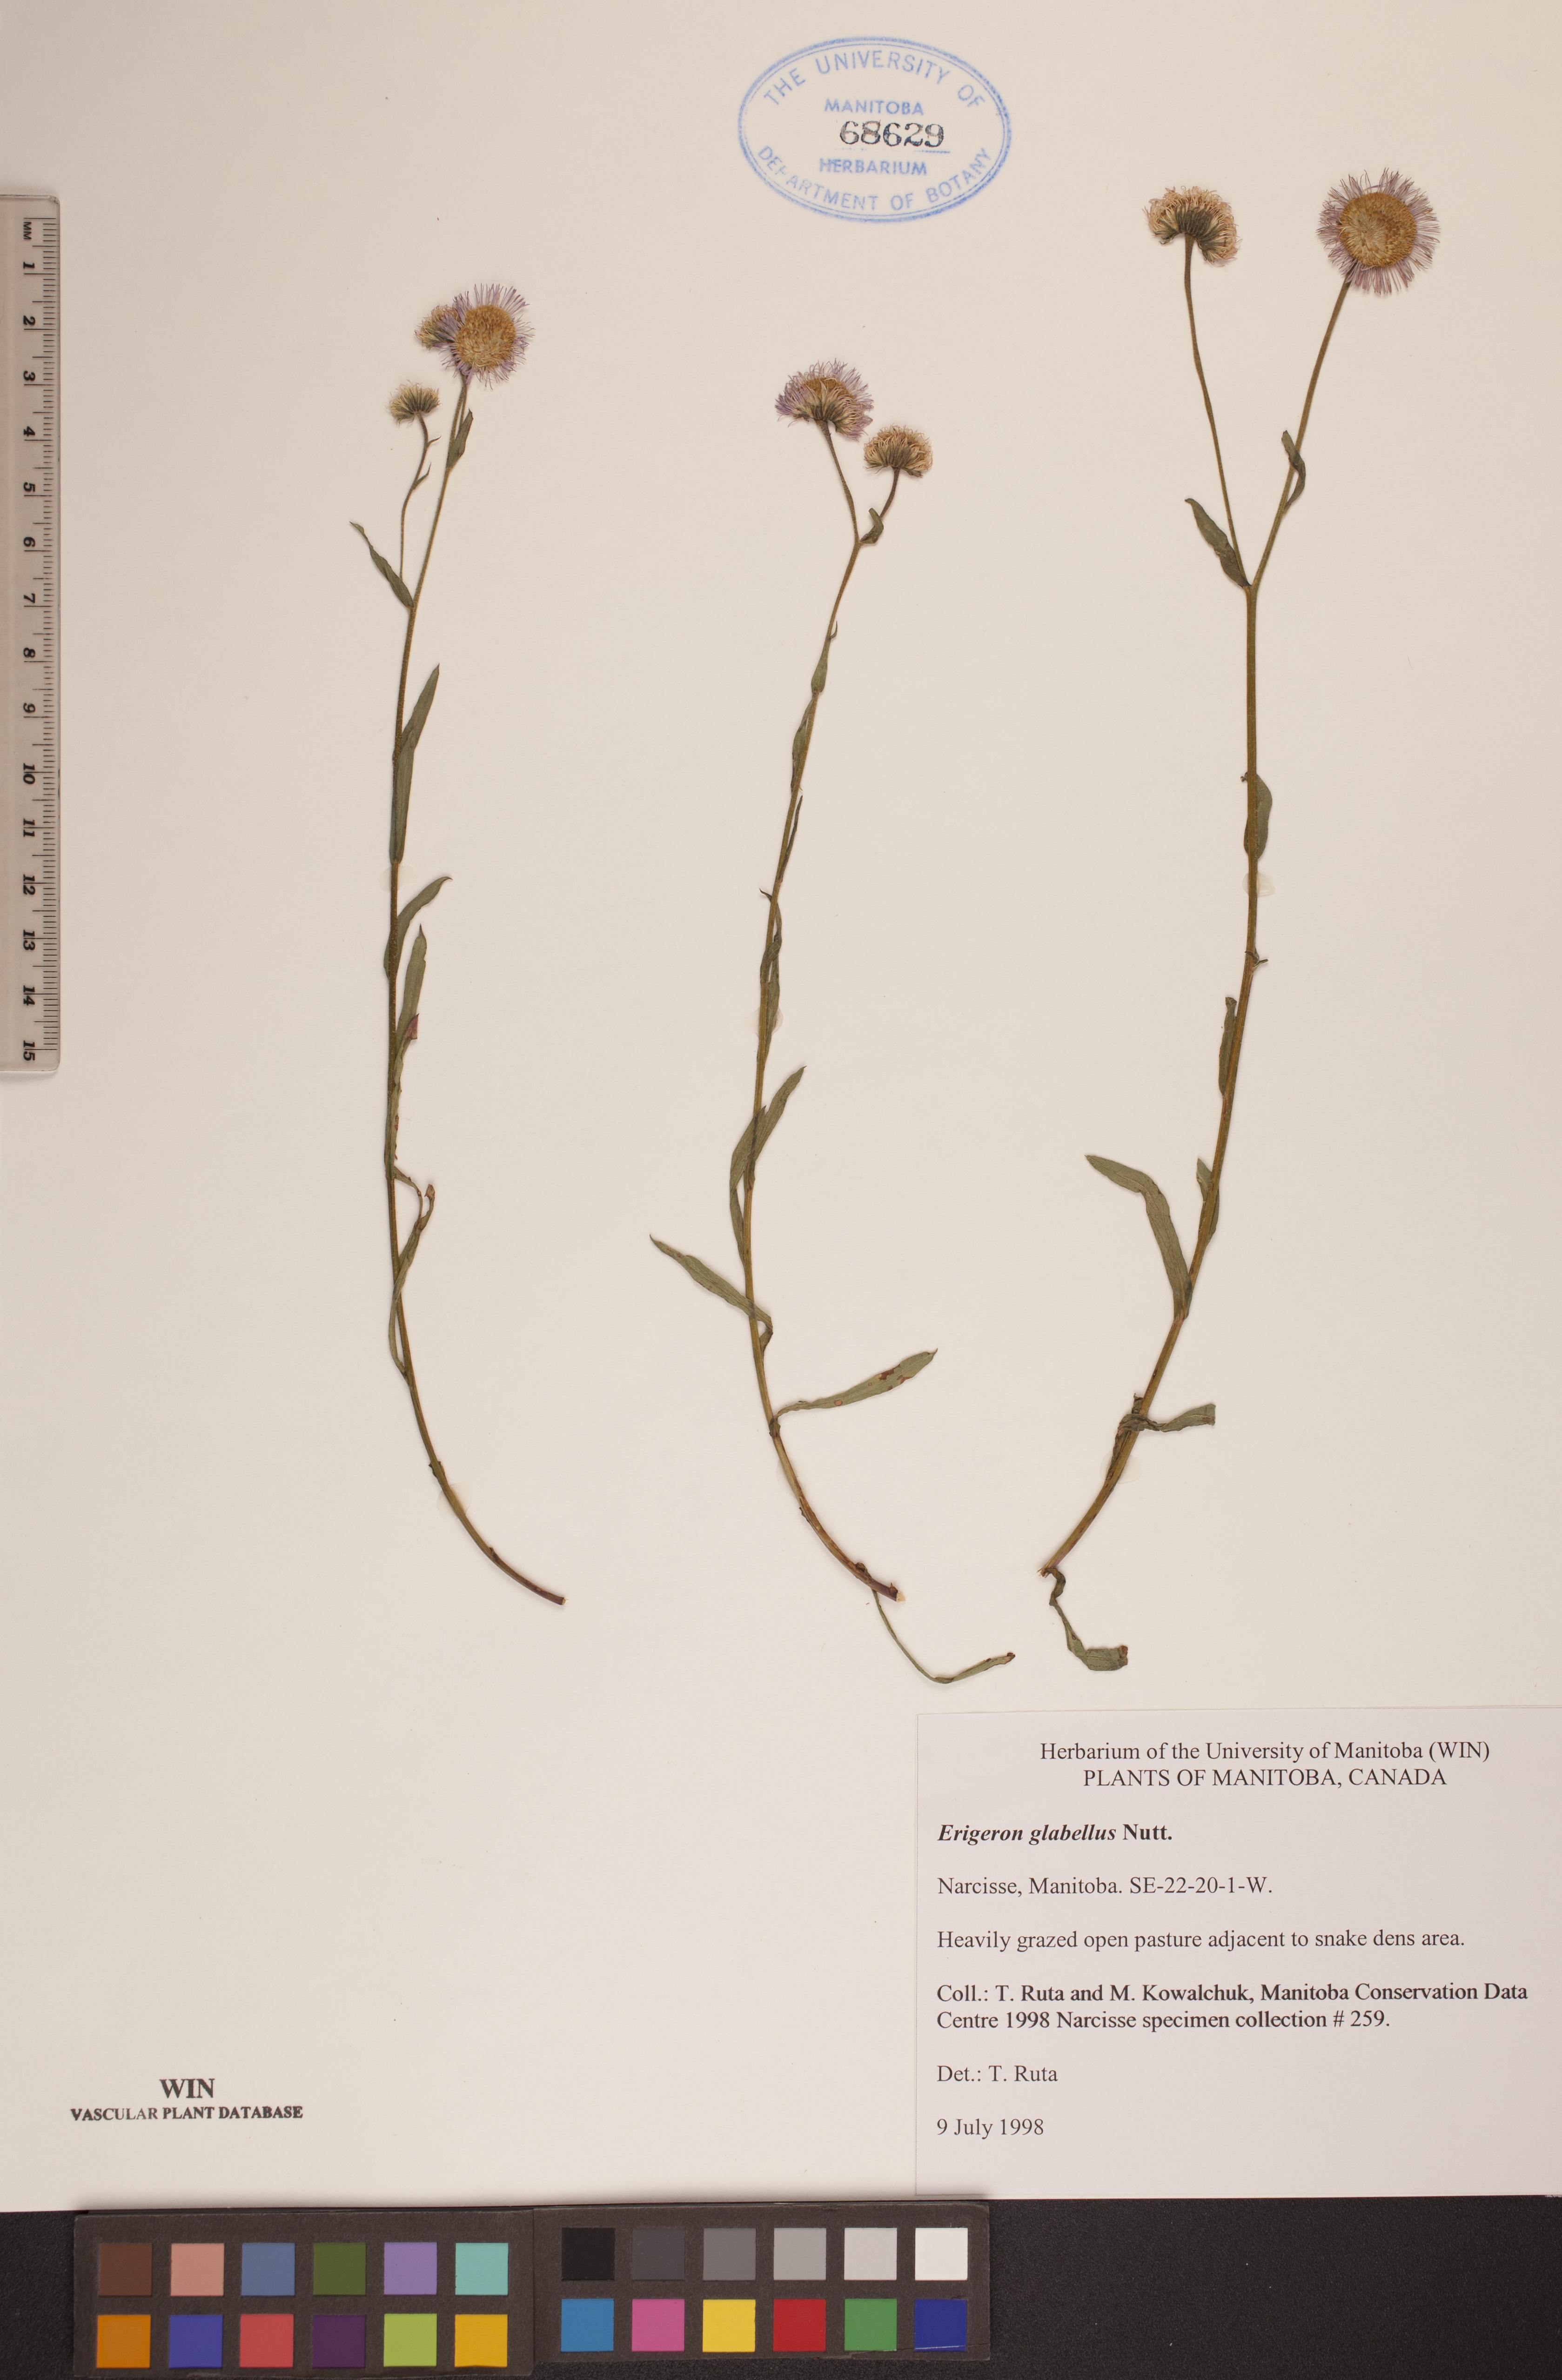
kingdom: Plantae
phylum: Tracheophyta
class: Magnoliopsida
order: Asterales
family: Asteraceae
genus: Erigeron
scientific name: Erigeron glabellus
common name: Smooth fleabane
